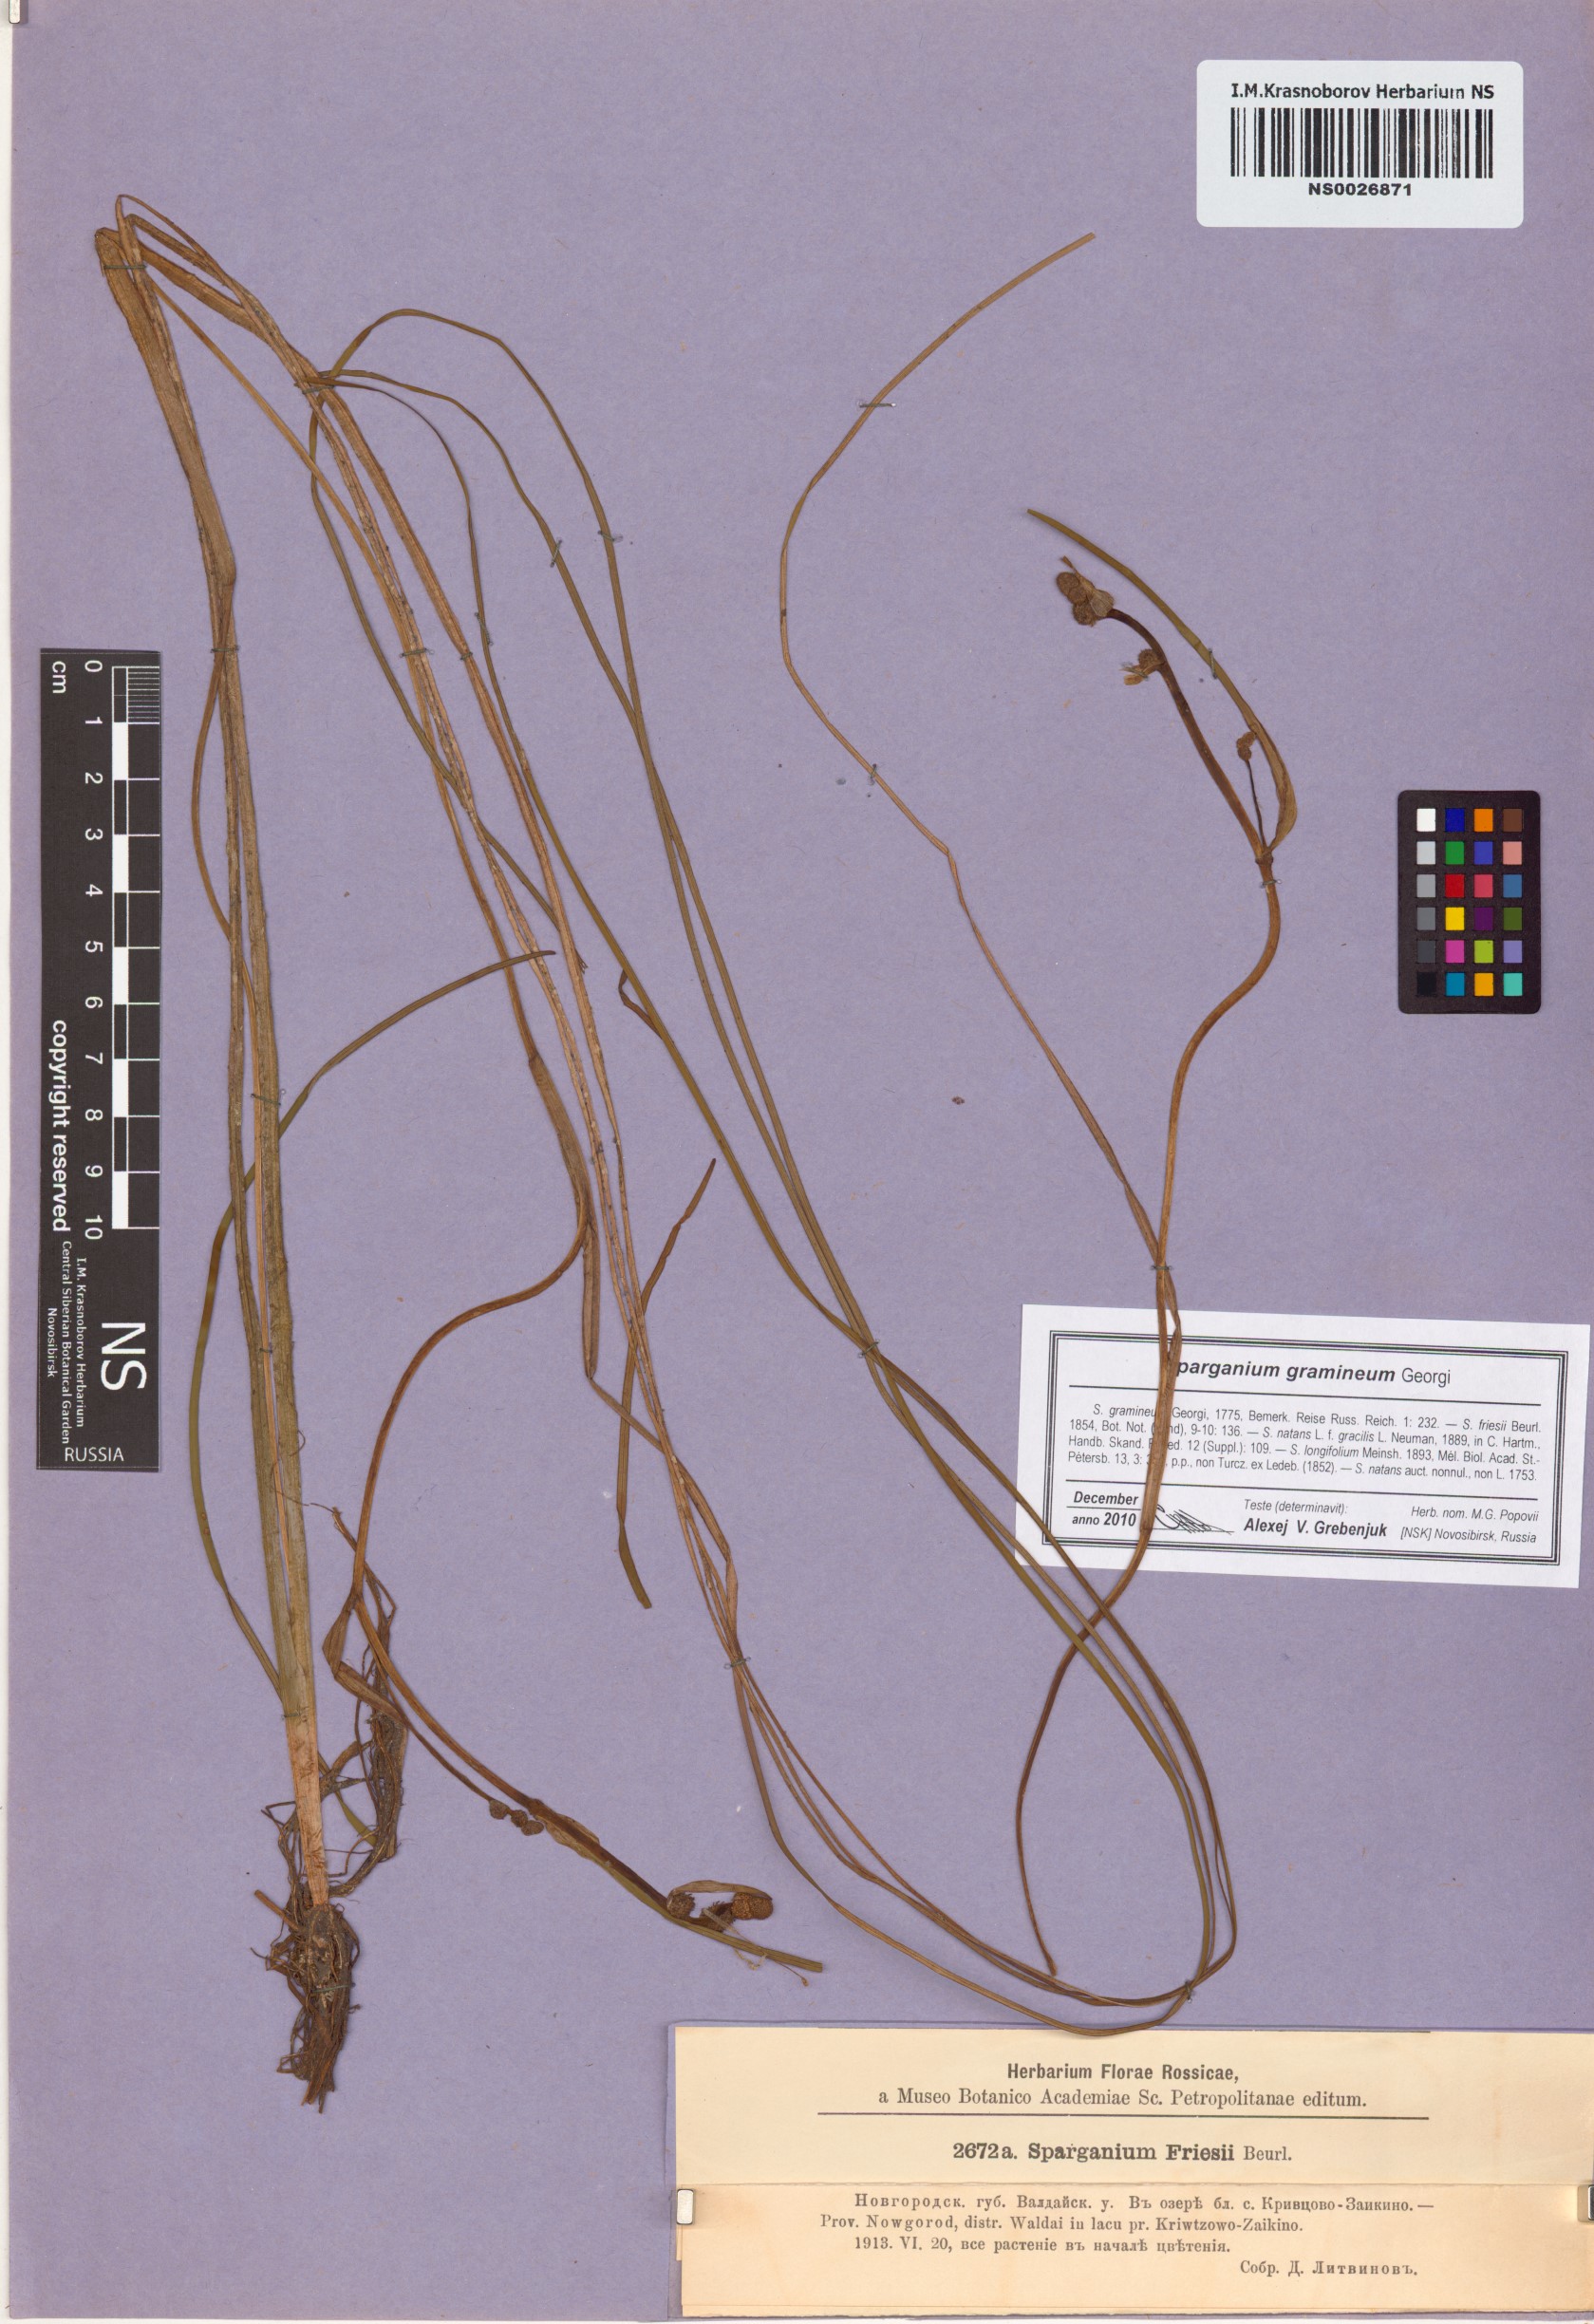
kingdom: Plantae
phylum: Tracheophyta
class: Liliopsida
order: Poales
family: Typhaceae
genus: Sparganium
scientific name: Sparganium gramineum
